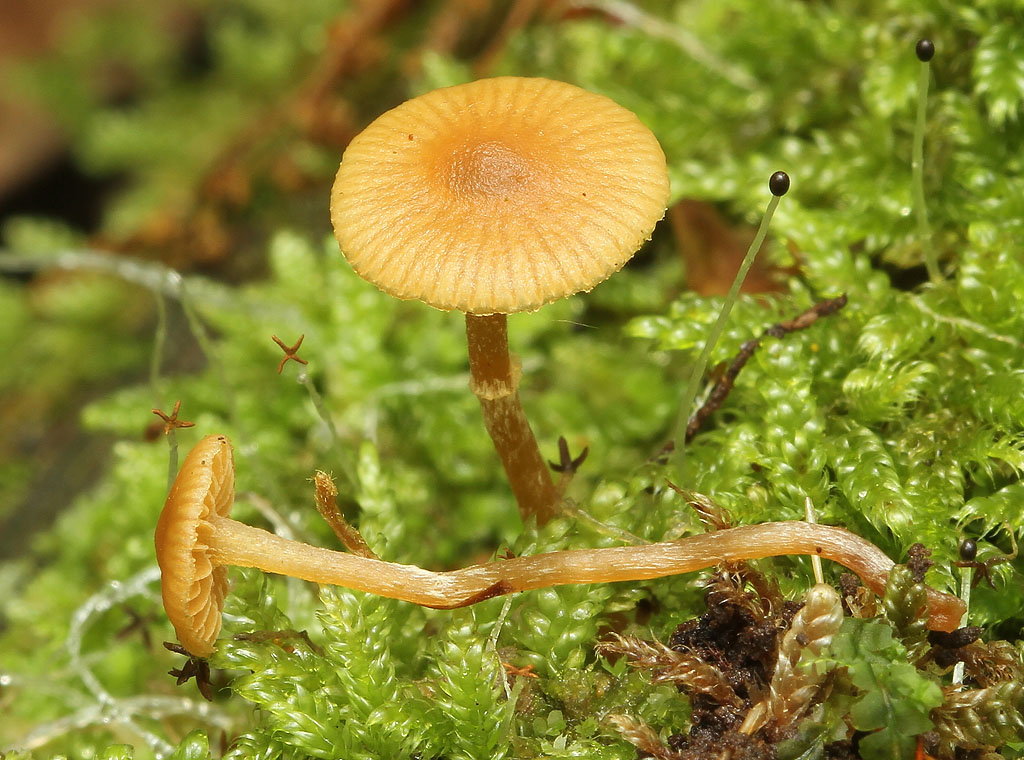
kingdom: Fungi
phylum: Basidiomycota
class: Agaricomycetes
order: Agaricales
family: Hymenogastraceae
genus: Galerina
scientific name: Galerina ampullaceocystis
